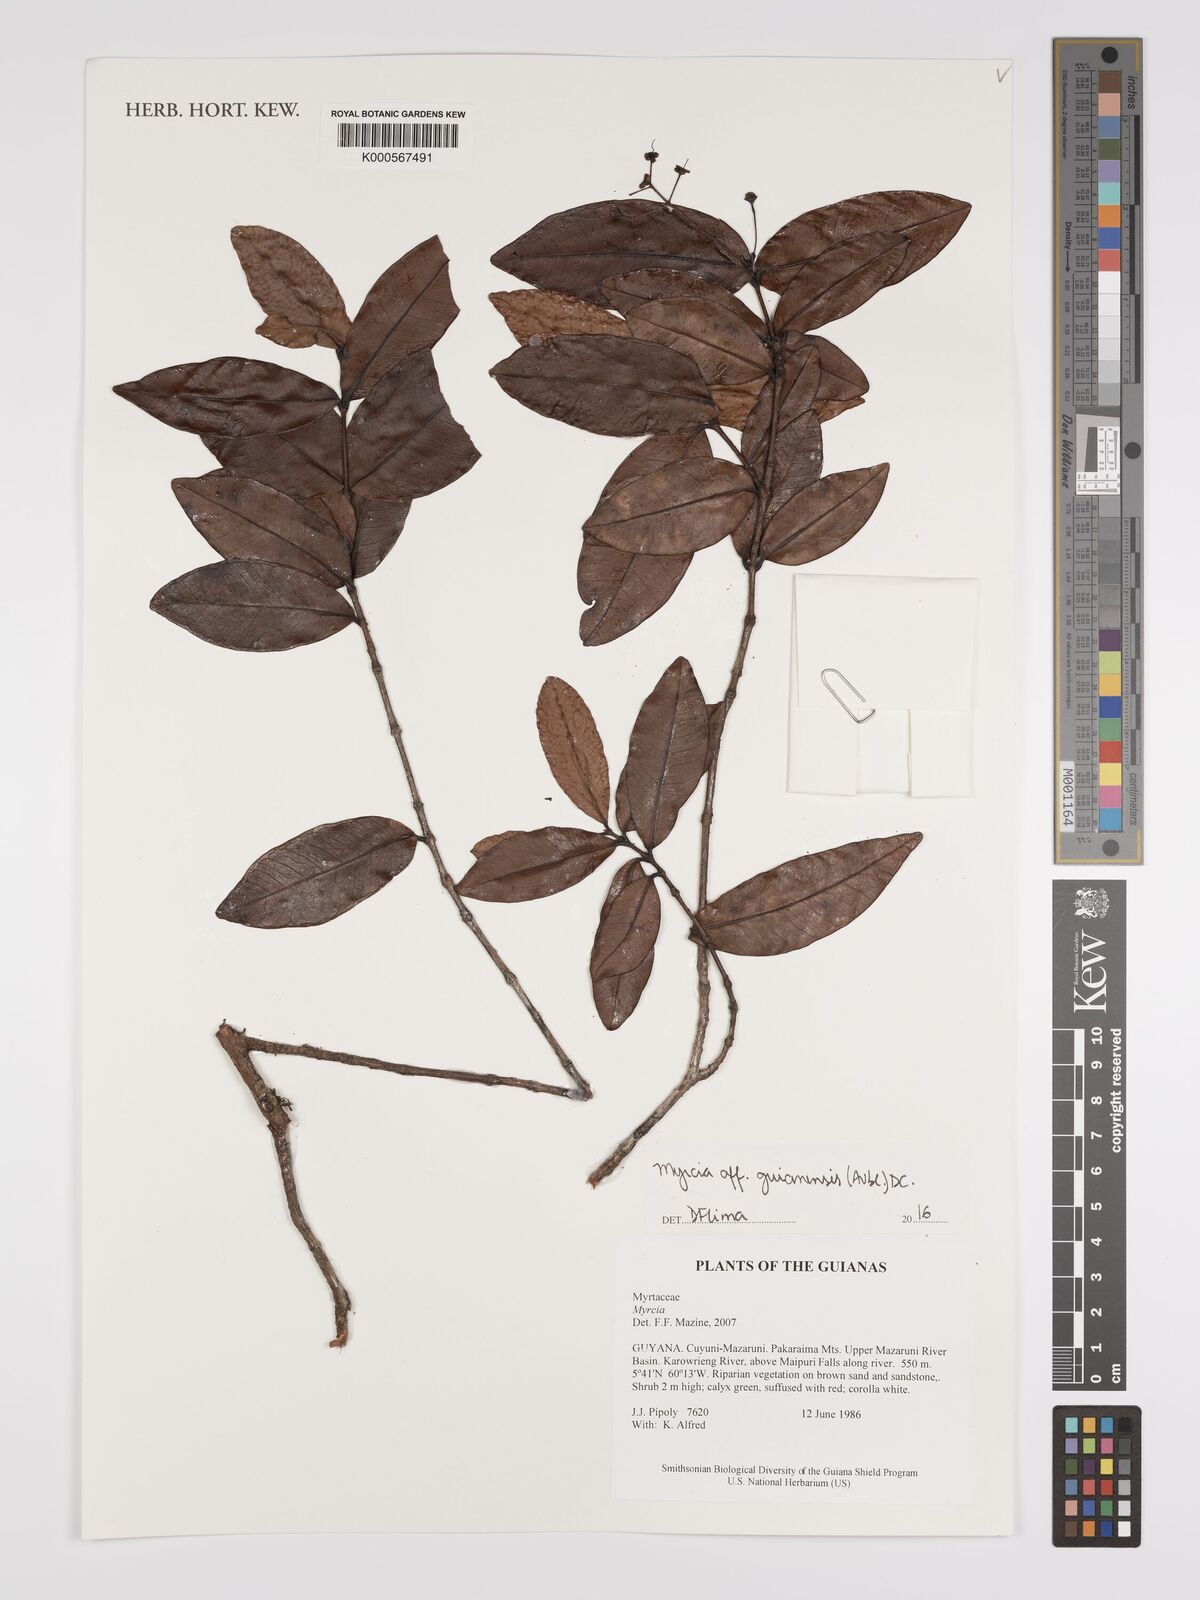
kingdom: Plantae
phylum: Tracheophyta
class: Magnoliopsida
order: Myrtales
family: Myrtaceae
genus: Myrcia
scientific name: Myrcia guianensis
